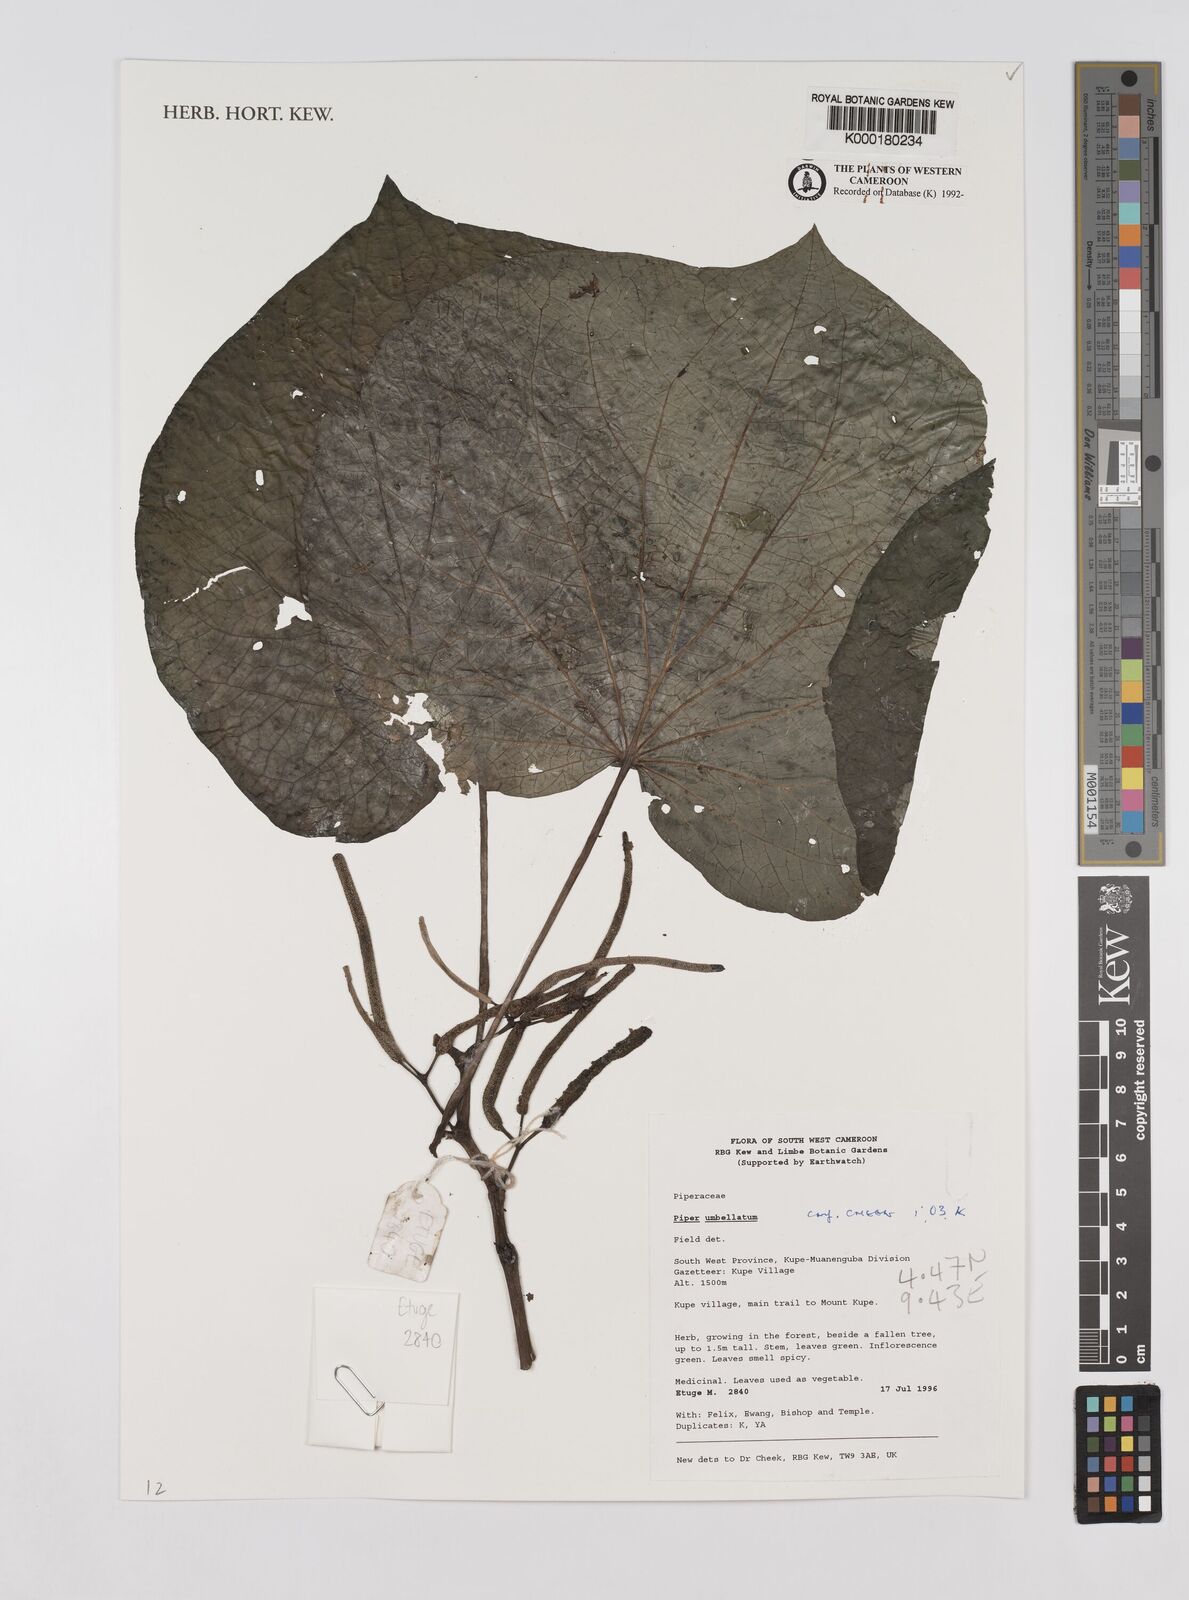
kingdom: Plantae
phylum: Tracheophyta
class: Magnoliopsida
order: Piperales
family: Piperaceae
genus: Piper
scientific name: Piper umbellatum
